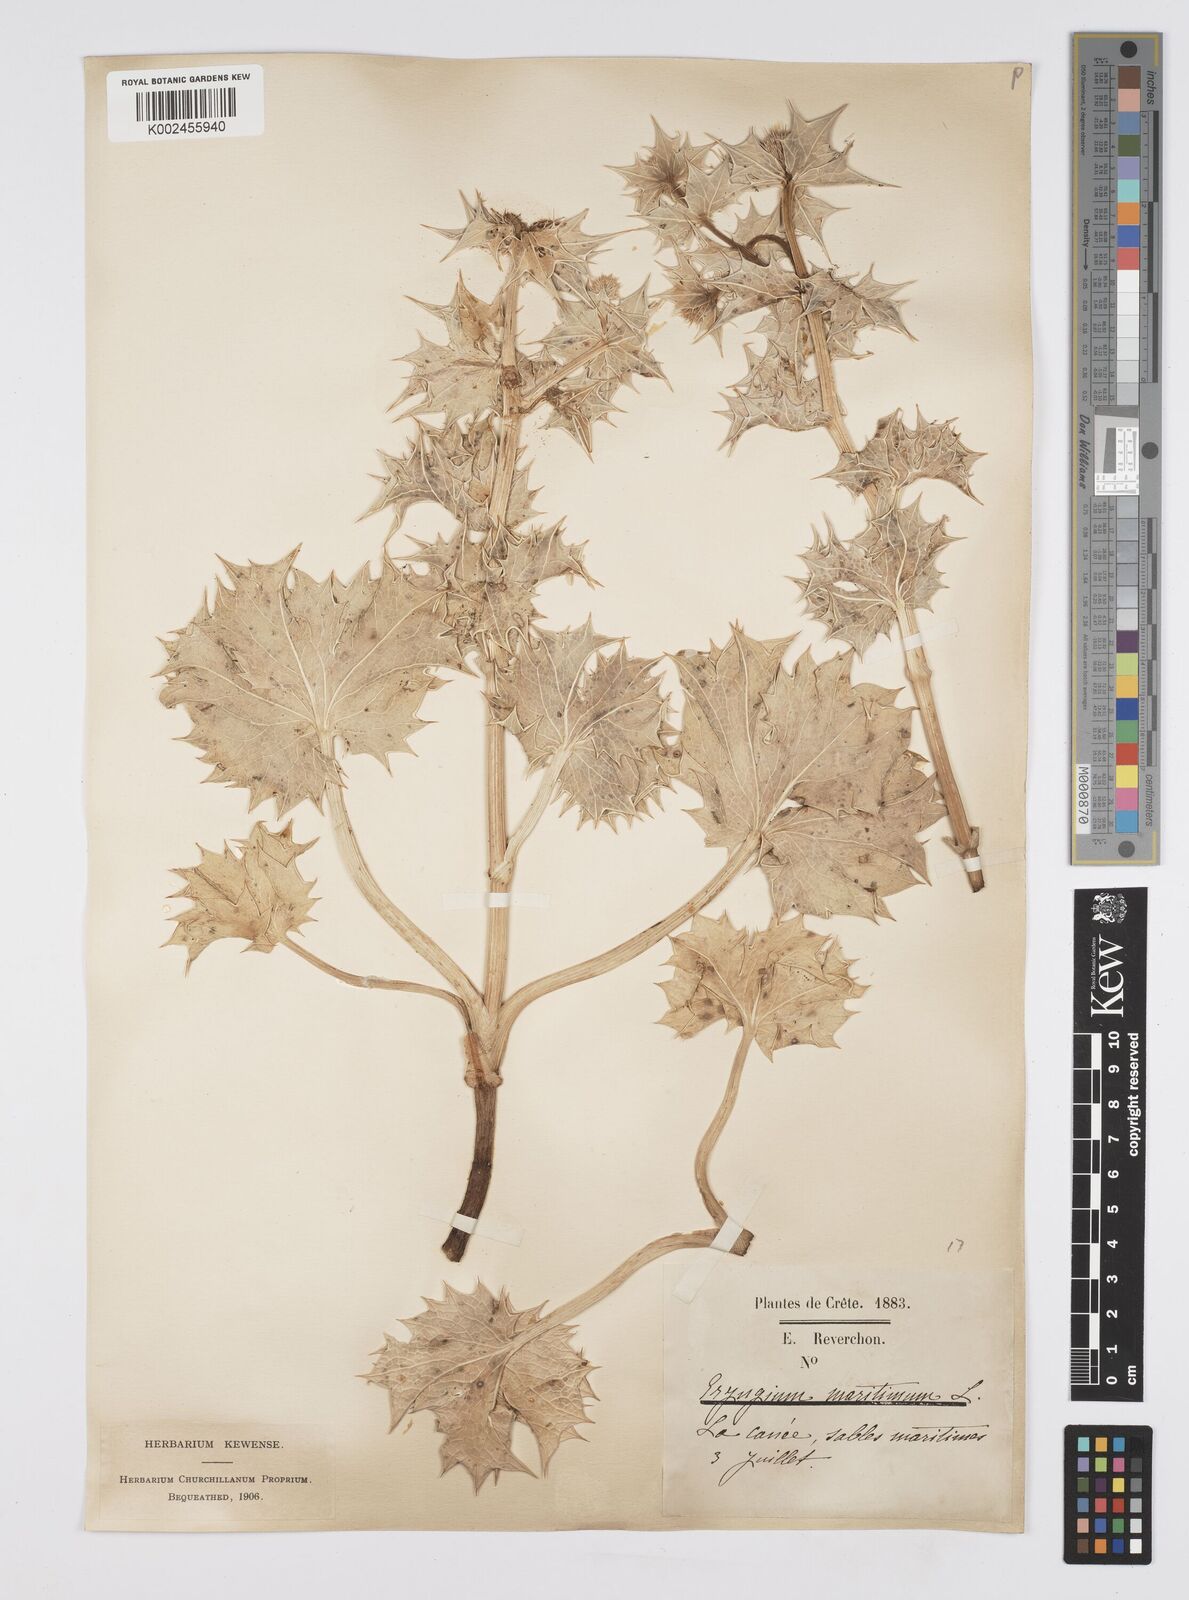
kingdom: Plantae
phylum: Tracheophyta
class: Magnoliopsida
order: Apiales
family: Apiaceae
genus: Eryngium
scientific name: Eryngium maritimum
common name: Sea-holly
